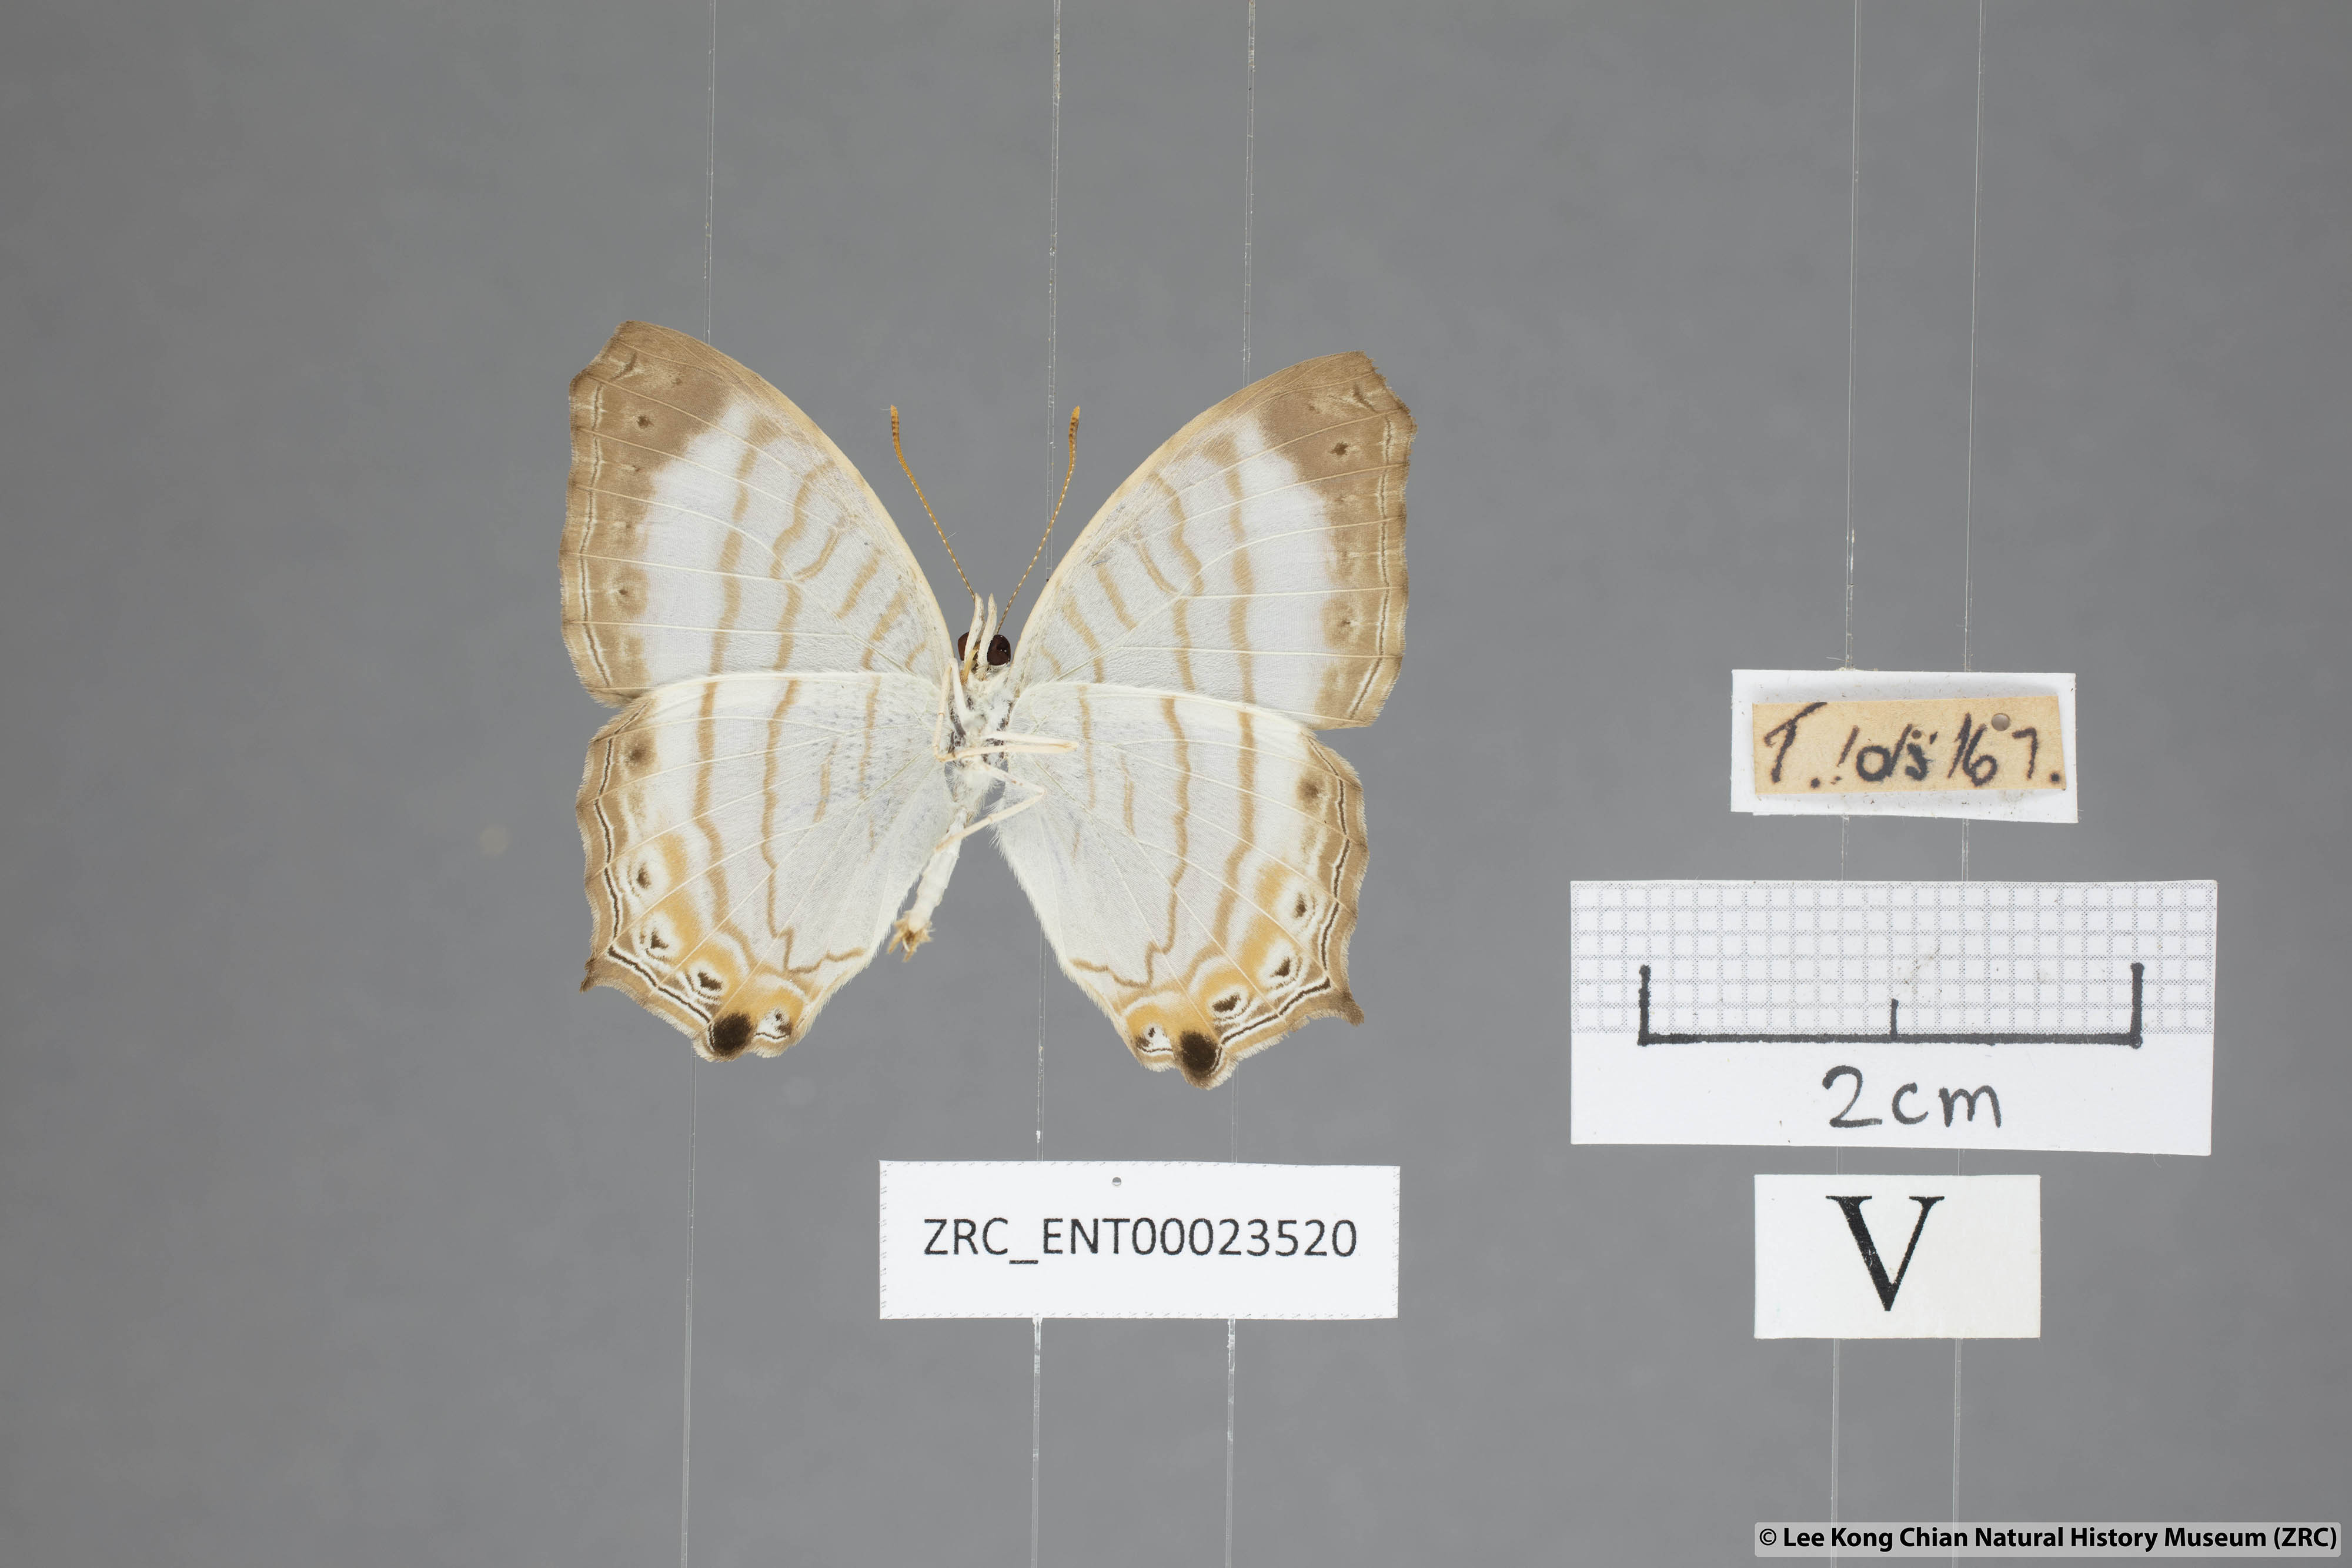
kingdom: Animalia
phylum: Arthropoda
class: Insecta
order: Lepidoptera
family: Nymphalidae
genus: Cyrestis
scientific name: Cyrestis themire
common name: Little mapwing
